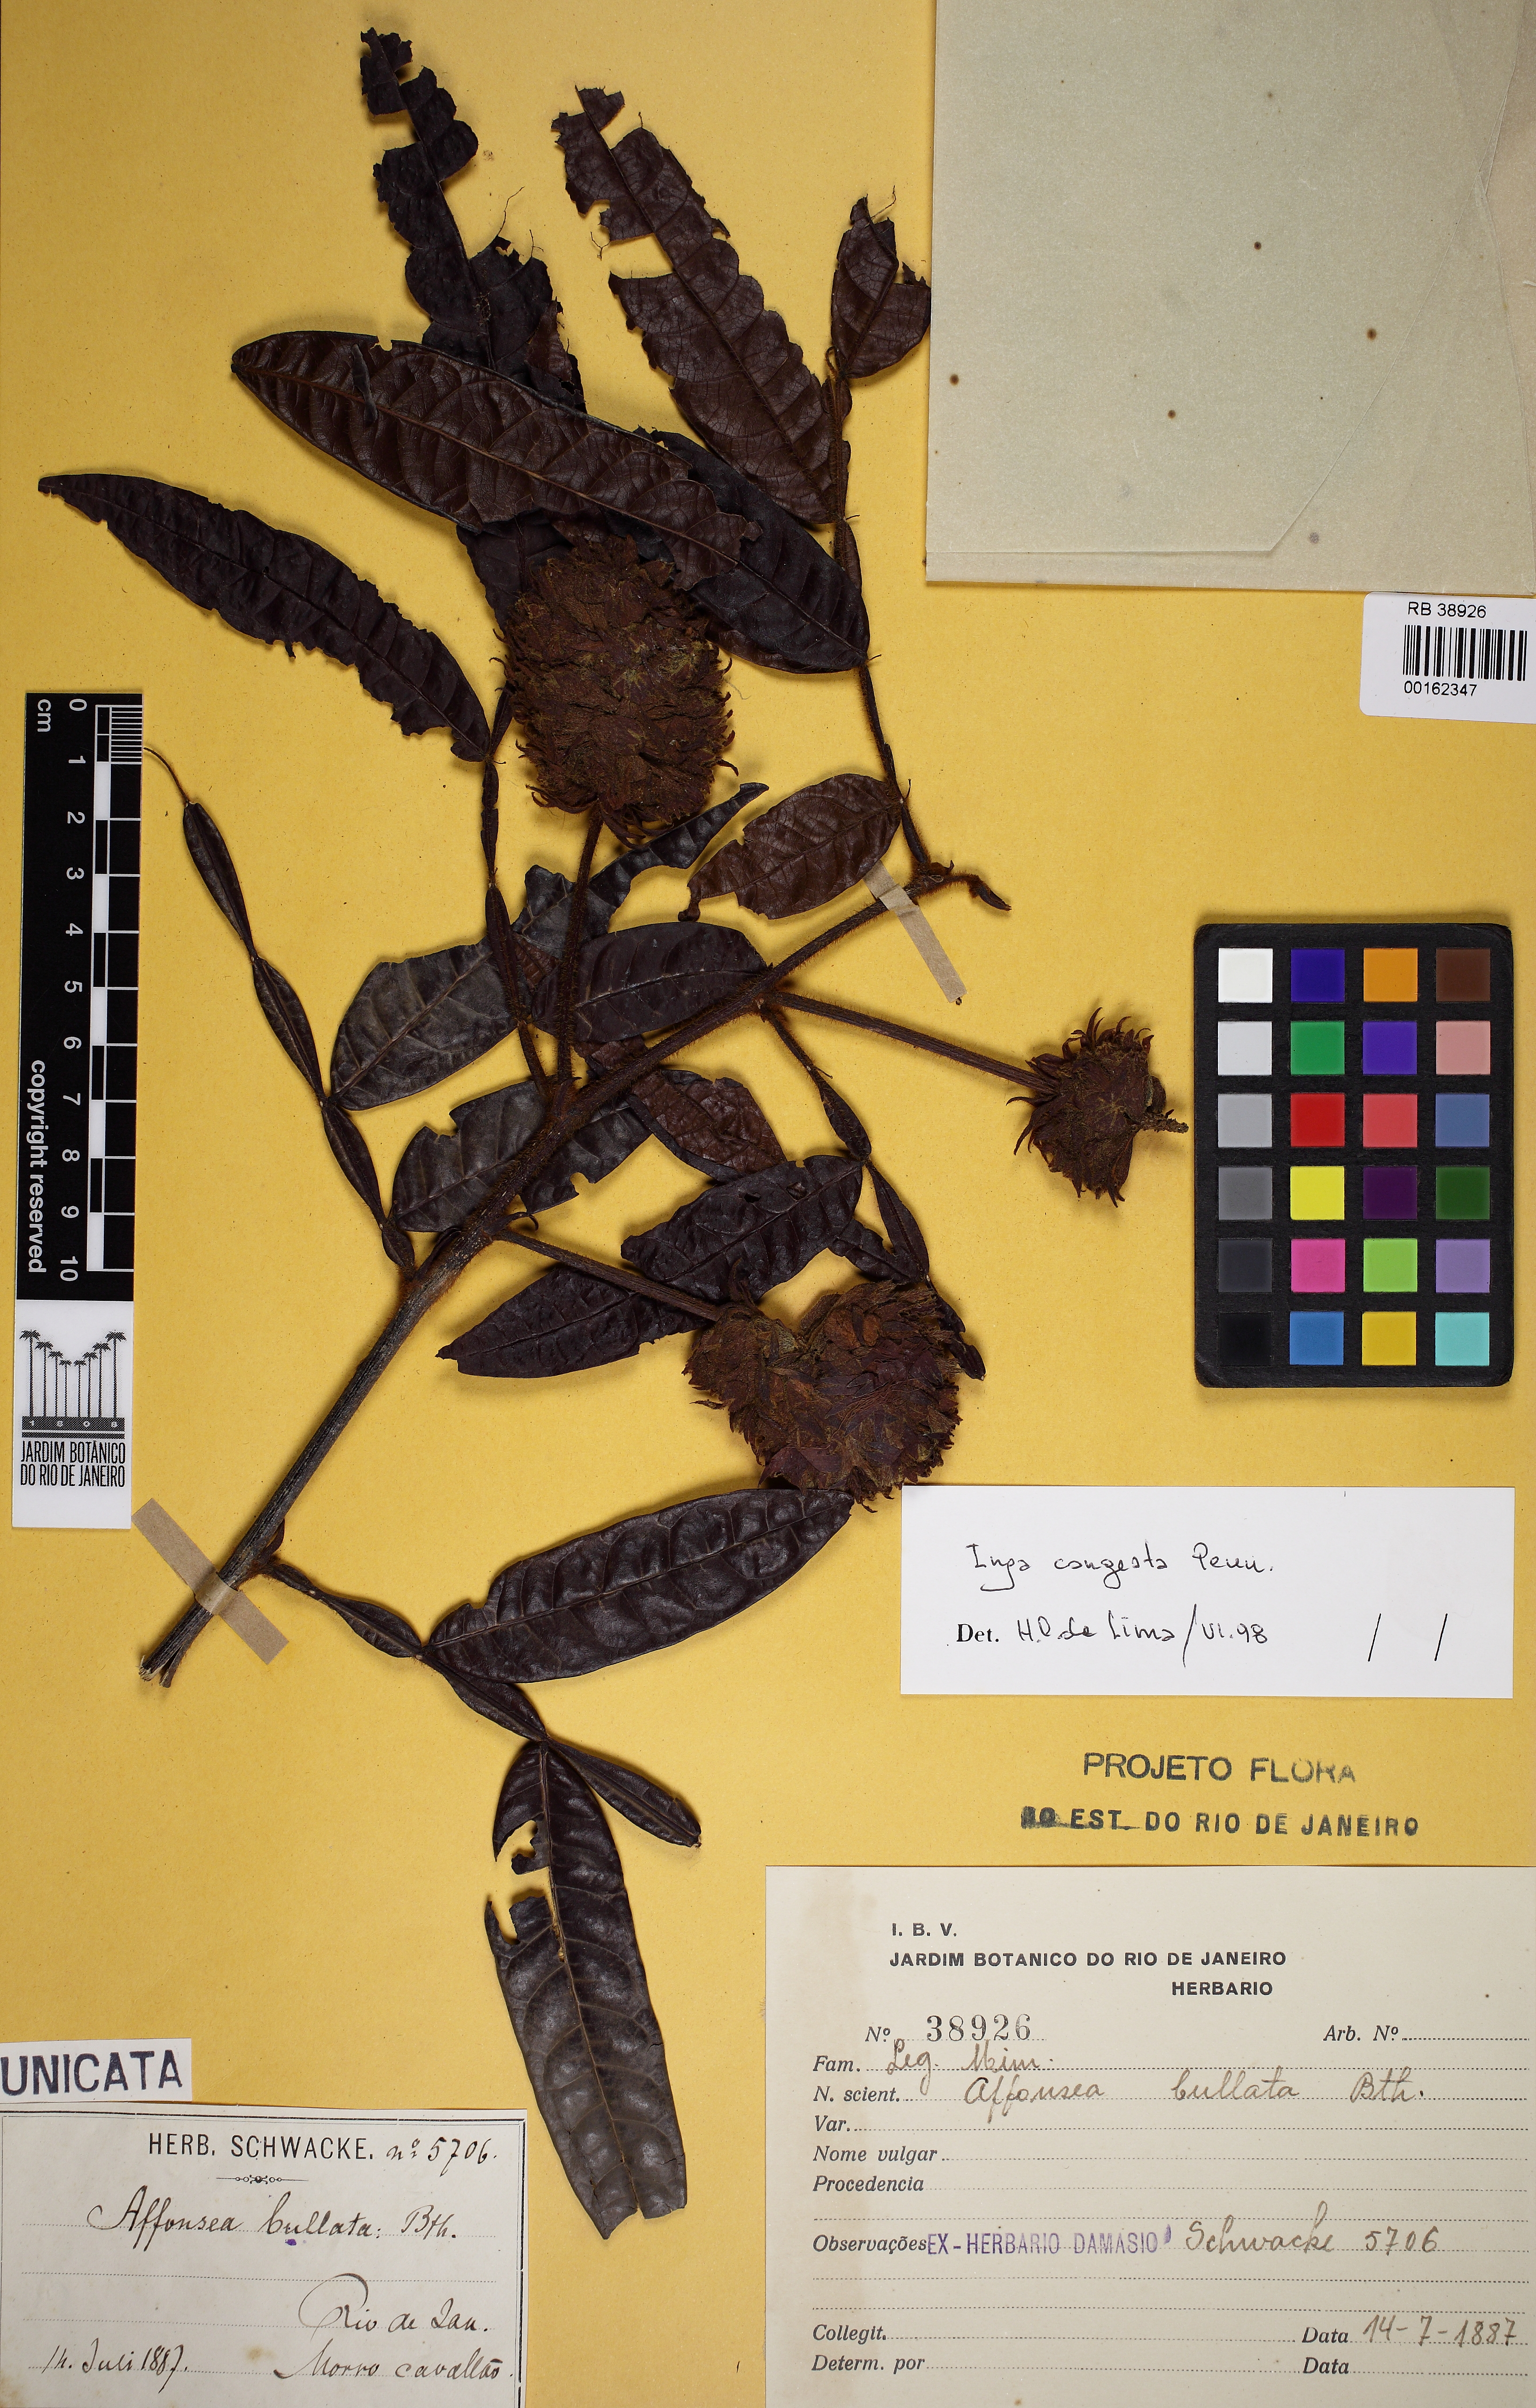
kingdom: Plantae
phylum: Tracheophyta
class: Magnoliopsida
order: Fabales
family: Fabaceae
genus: Inga
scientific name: Inga congesta
